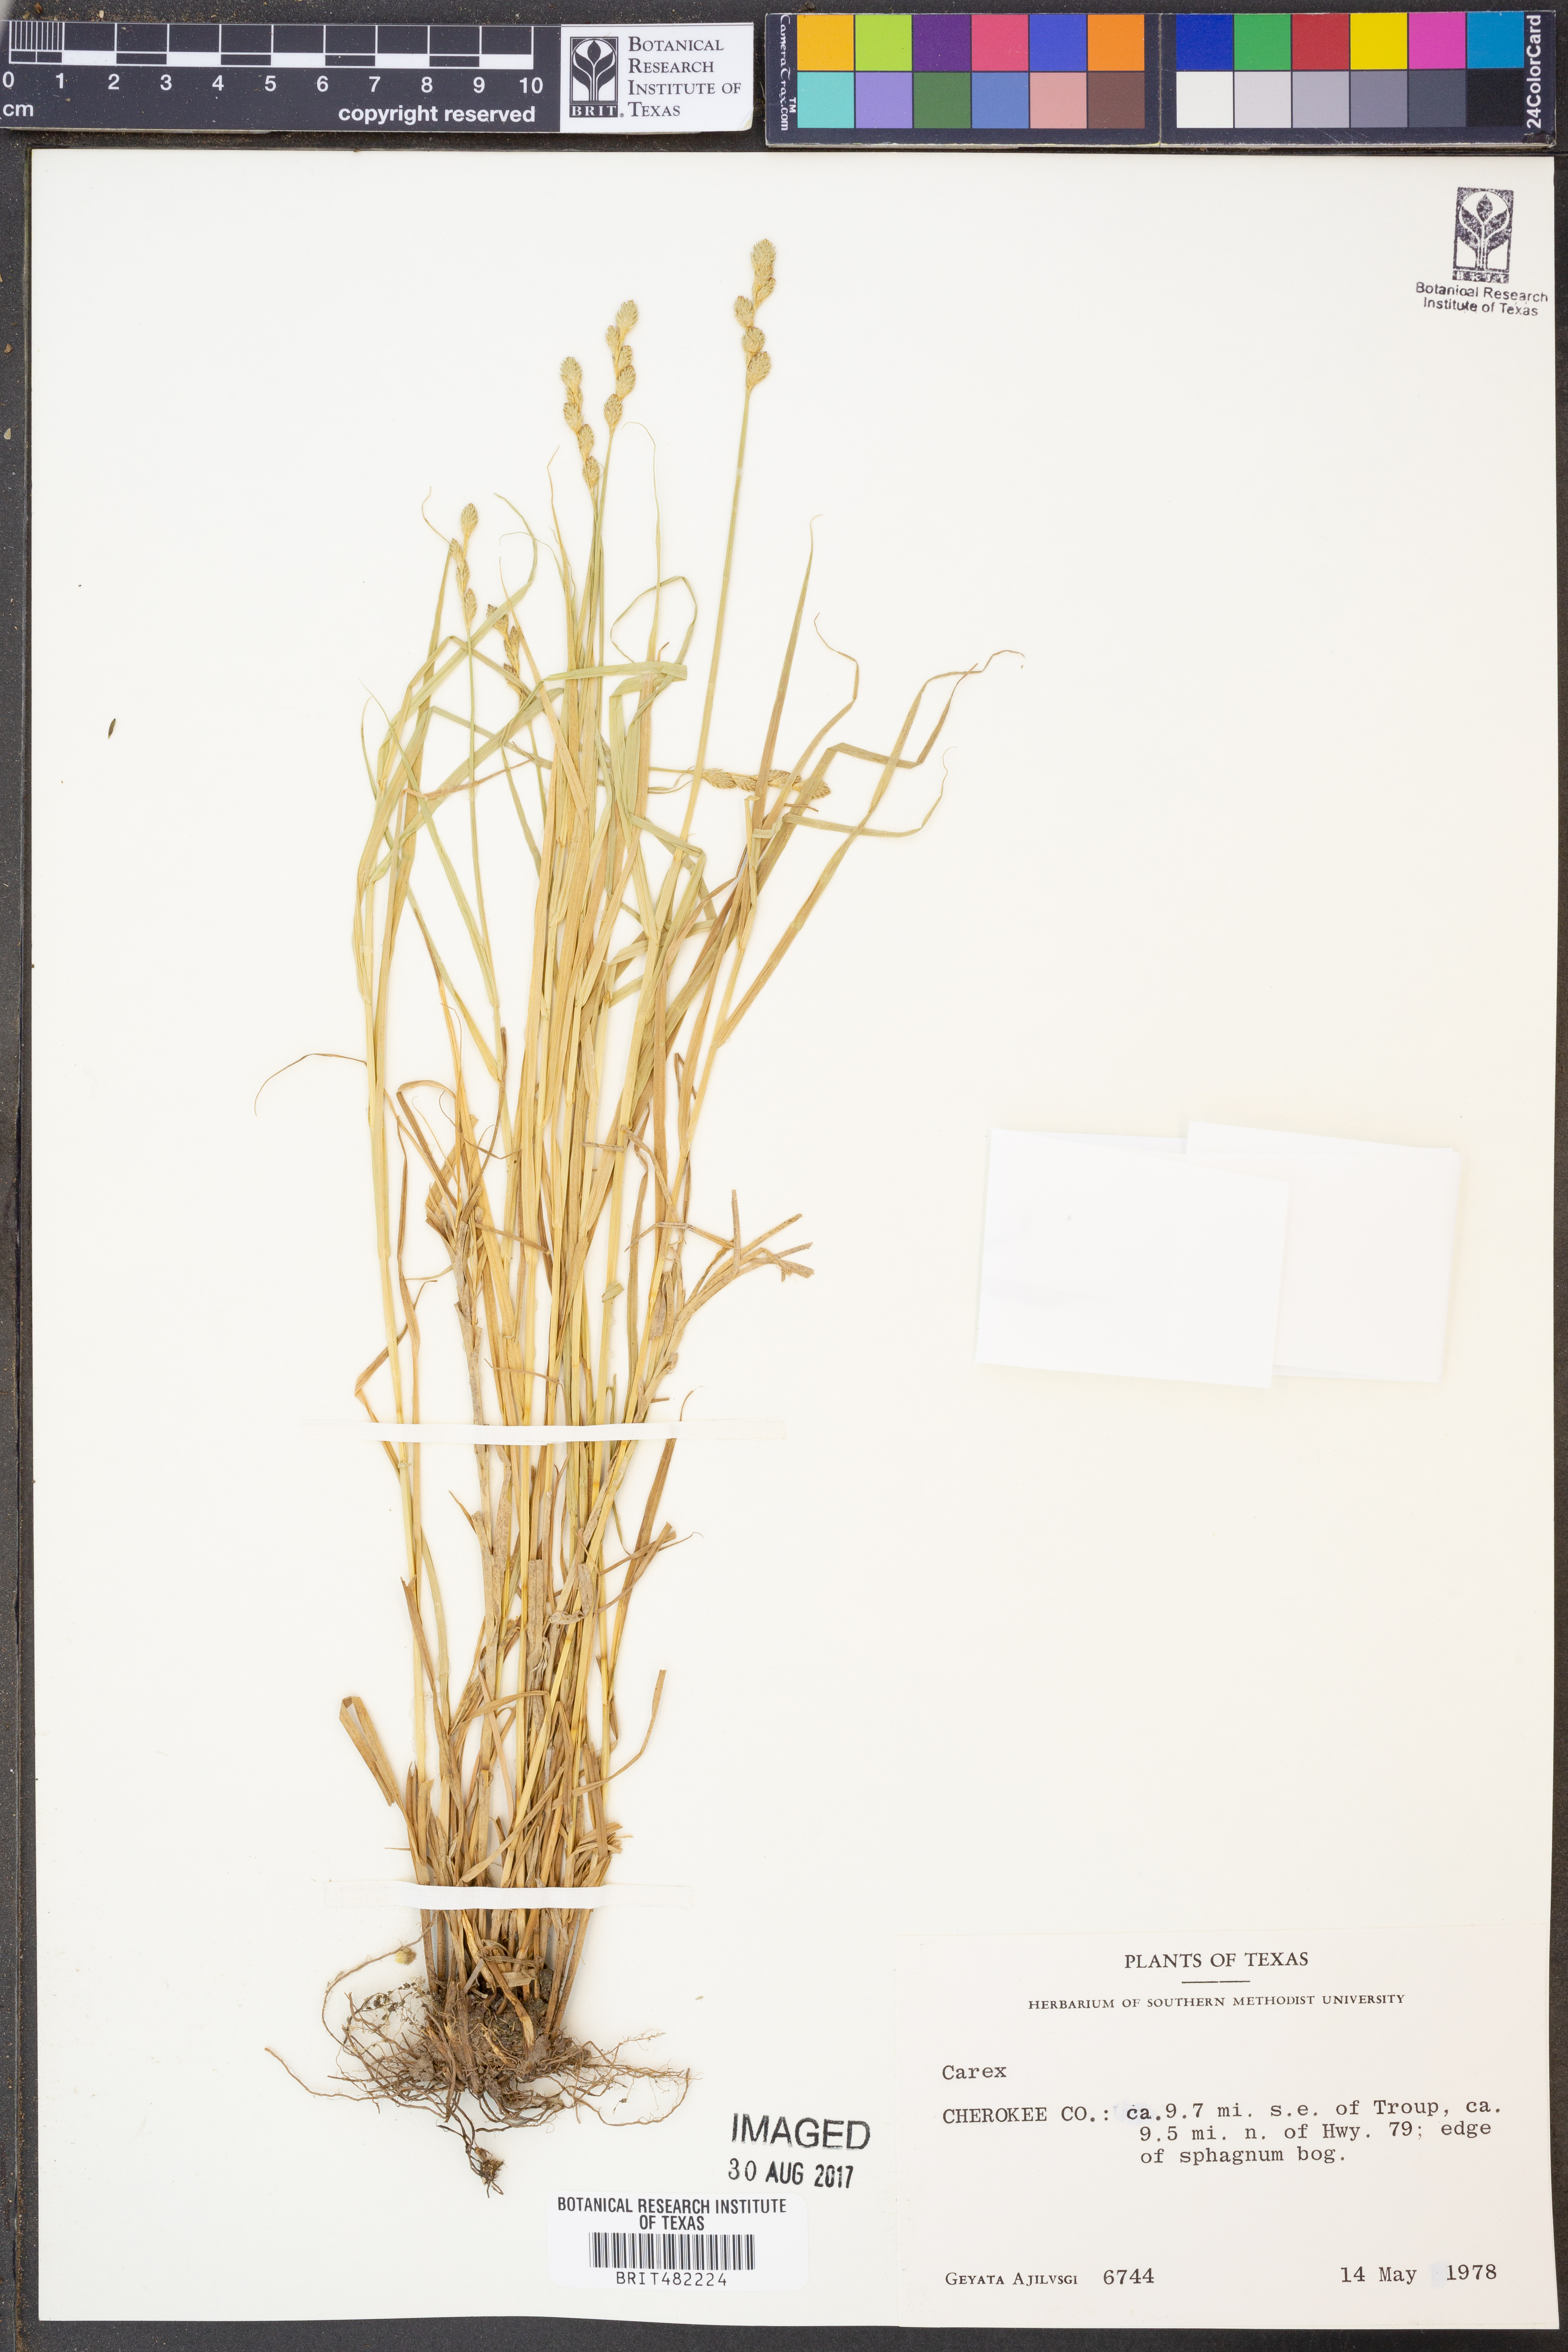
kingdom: Plantae
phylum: Tracheophyta
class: Liliopsida
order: Poales
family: Cyperaceae
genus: Carex
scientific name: Carex
